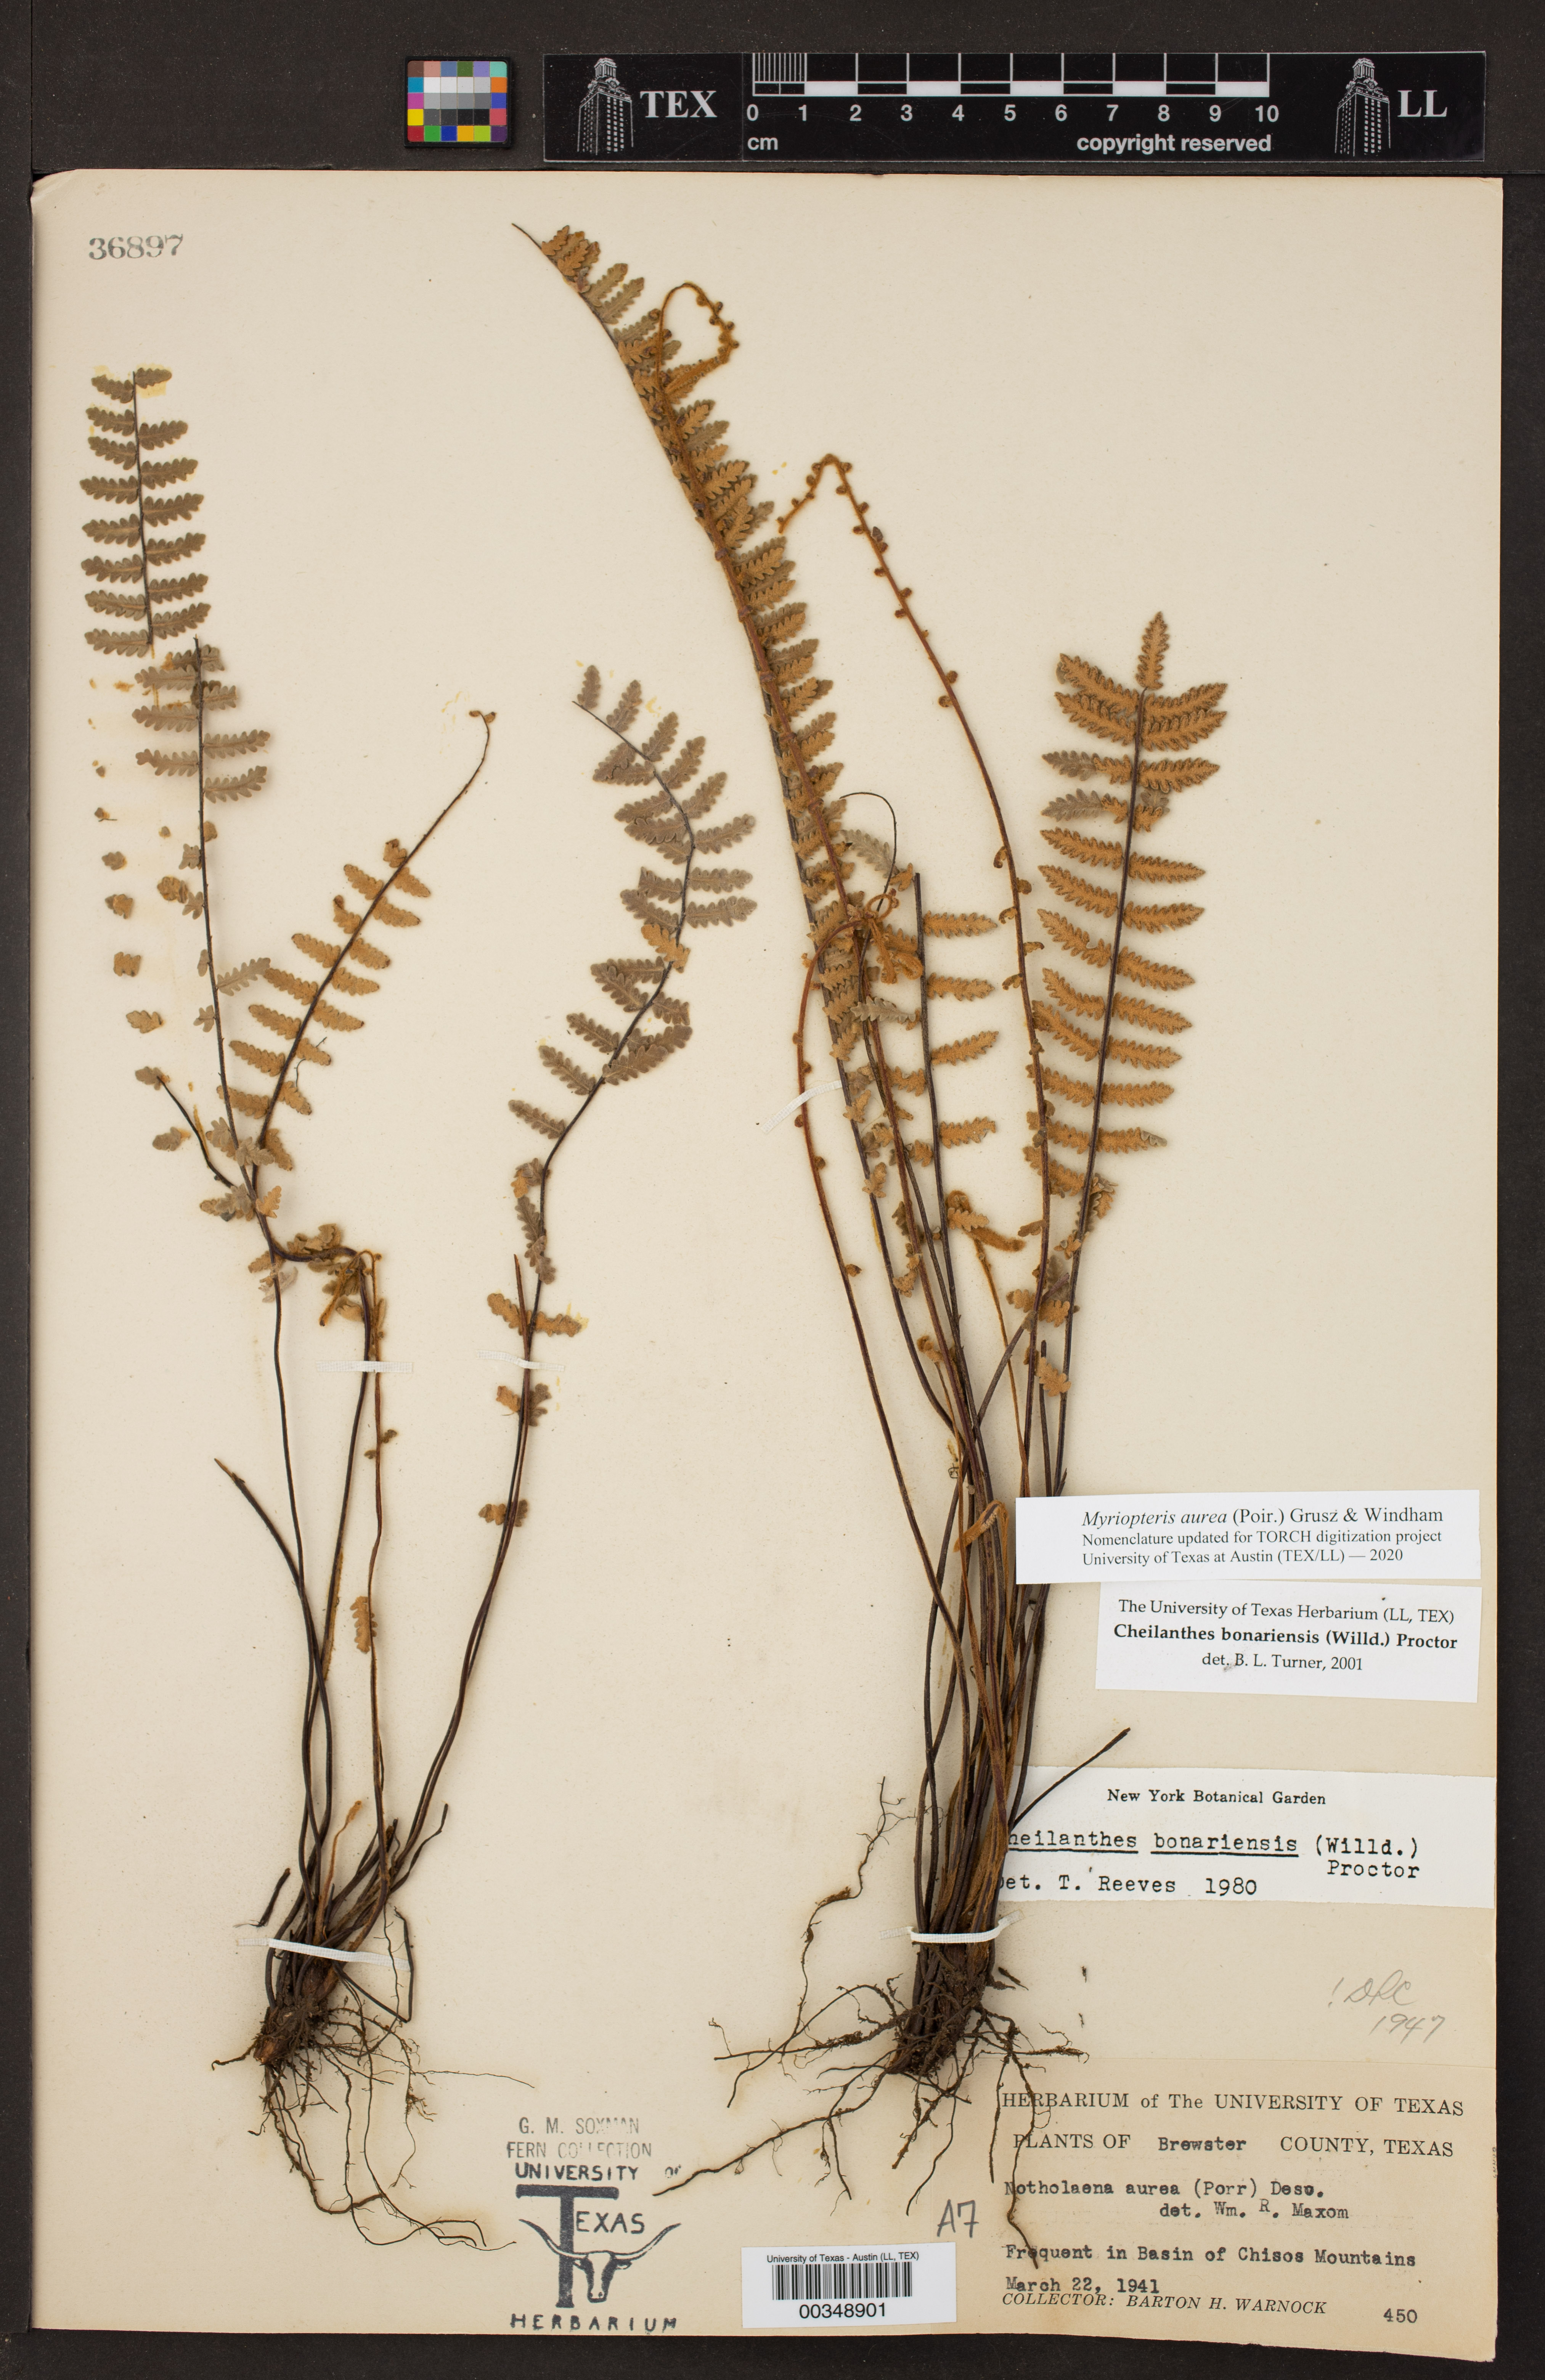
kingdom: Plantae
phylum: Tracheophyta
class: Polypodiopsida
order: Polypodiales
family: Pteridaceae
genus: Myriopteris
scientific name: Myriopteris aurea
